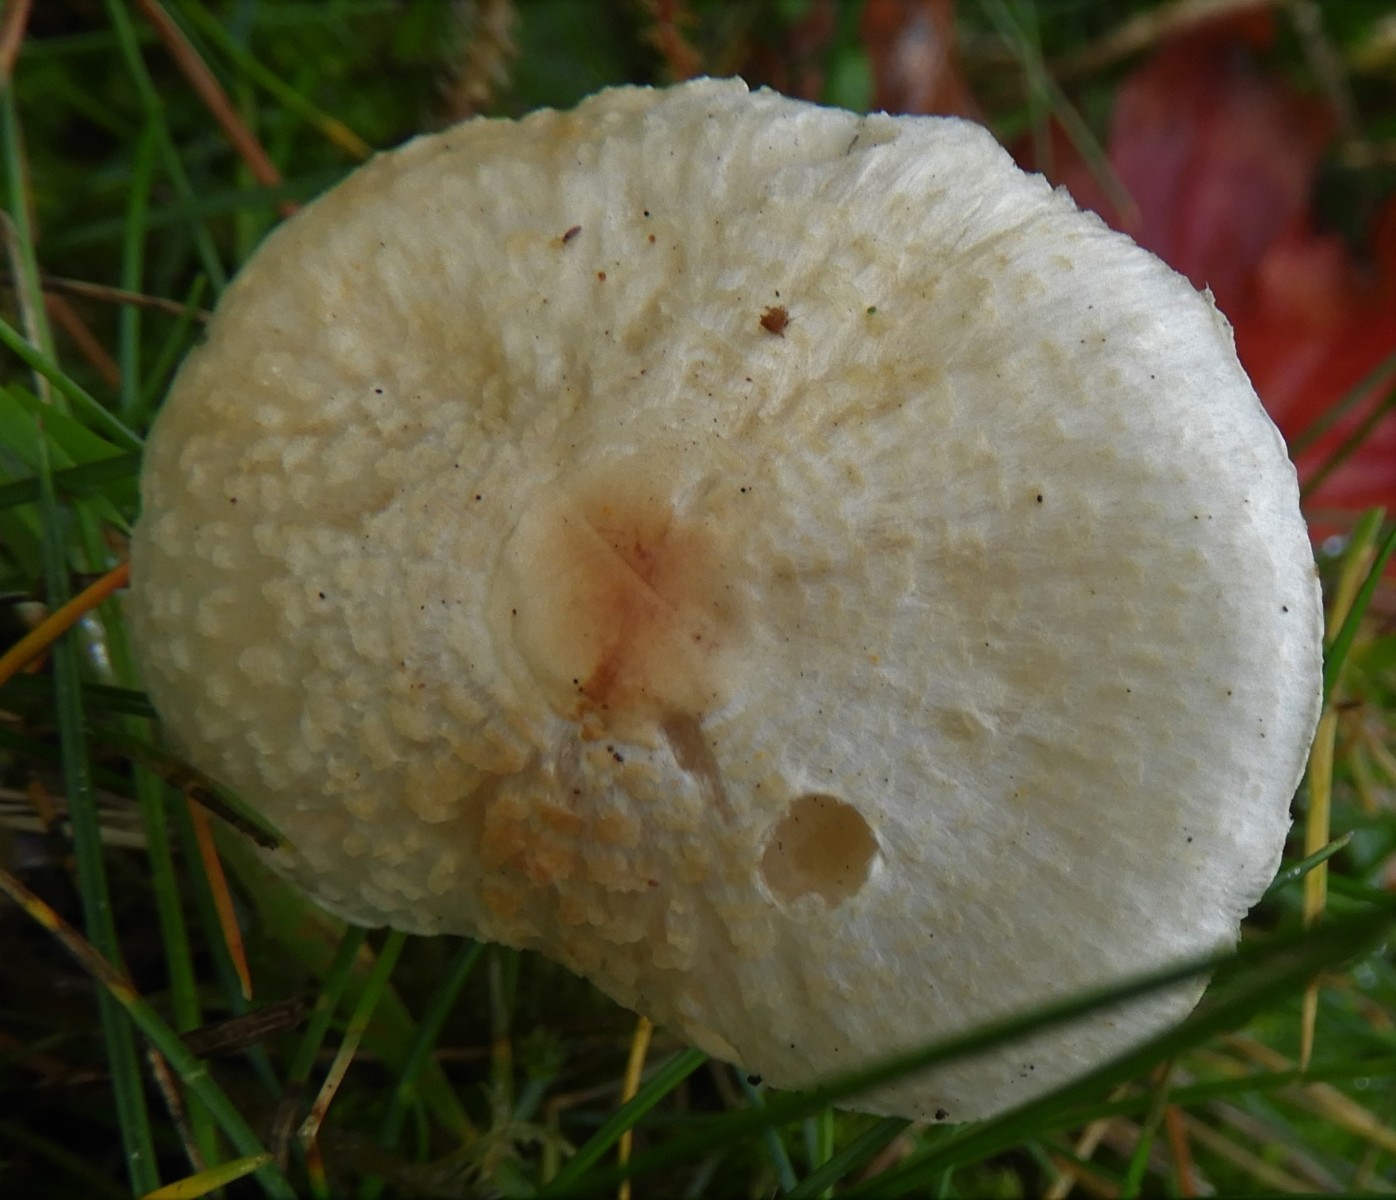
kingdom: Fungi
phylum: Basidiomycota
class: Agaricomycetes
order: Agaricales
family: Agaricaceae
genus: Lepiota
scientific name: Lepiota cristata
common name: stinkende parasolhat
